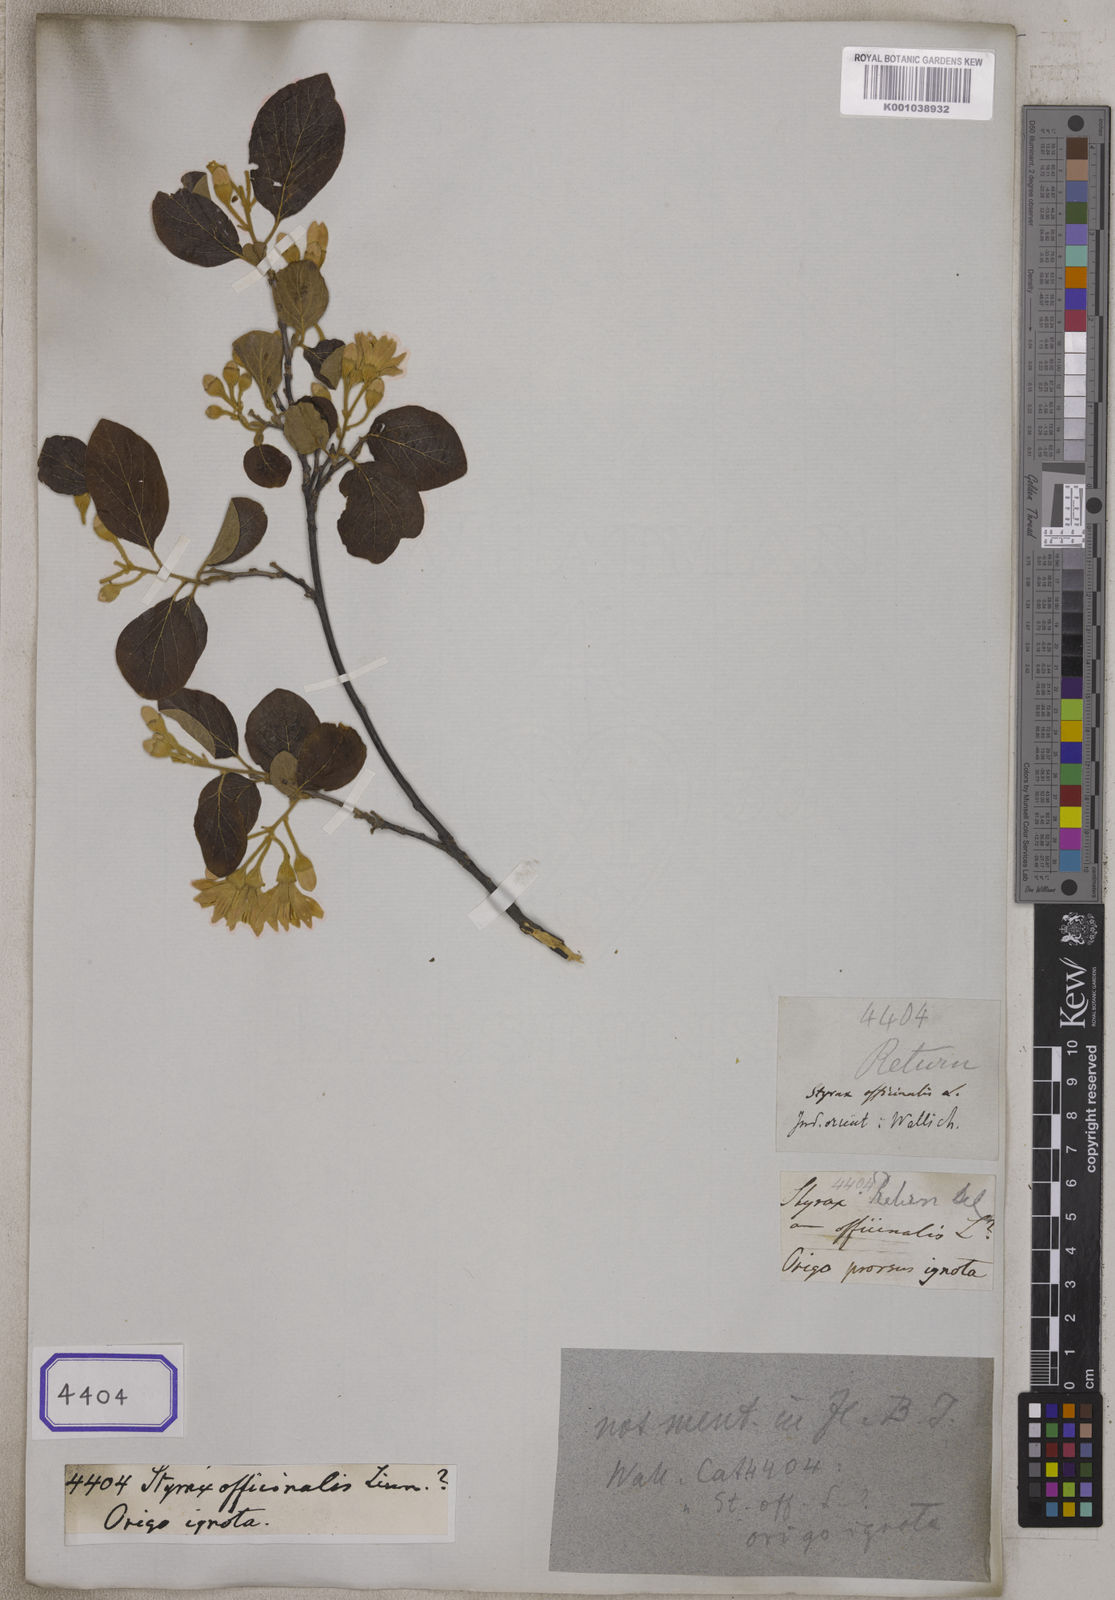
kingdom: Plantae
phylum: Tracheophyta
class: Magnoliopsida
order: Ericales
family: Styracaceae
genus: Styrax
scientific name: Styrax officinalis
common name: Storax
